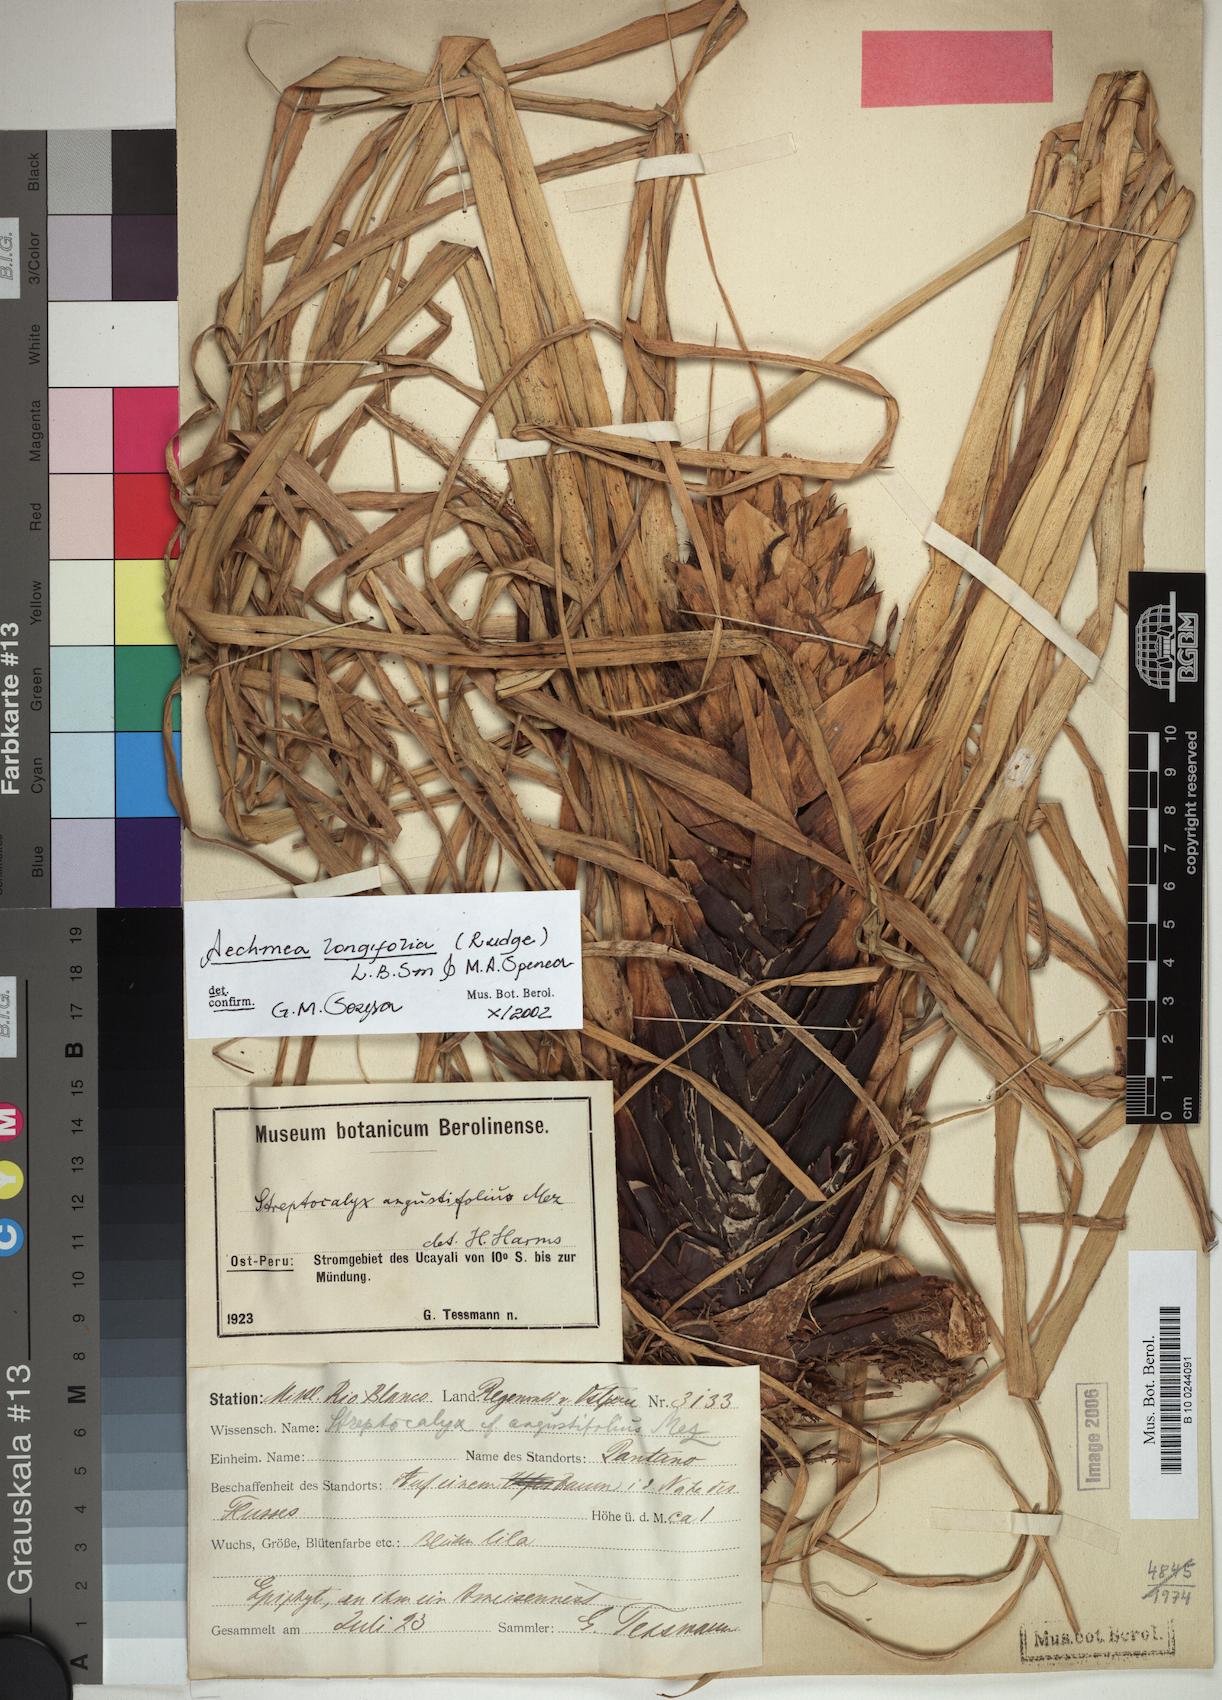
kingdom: Plantae
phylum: Tracheophyta
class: Liliopsida
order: Poales
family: Bromeliaceae
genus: Aechmea
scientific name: Aechmea longifolia
